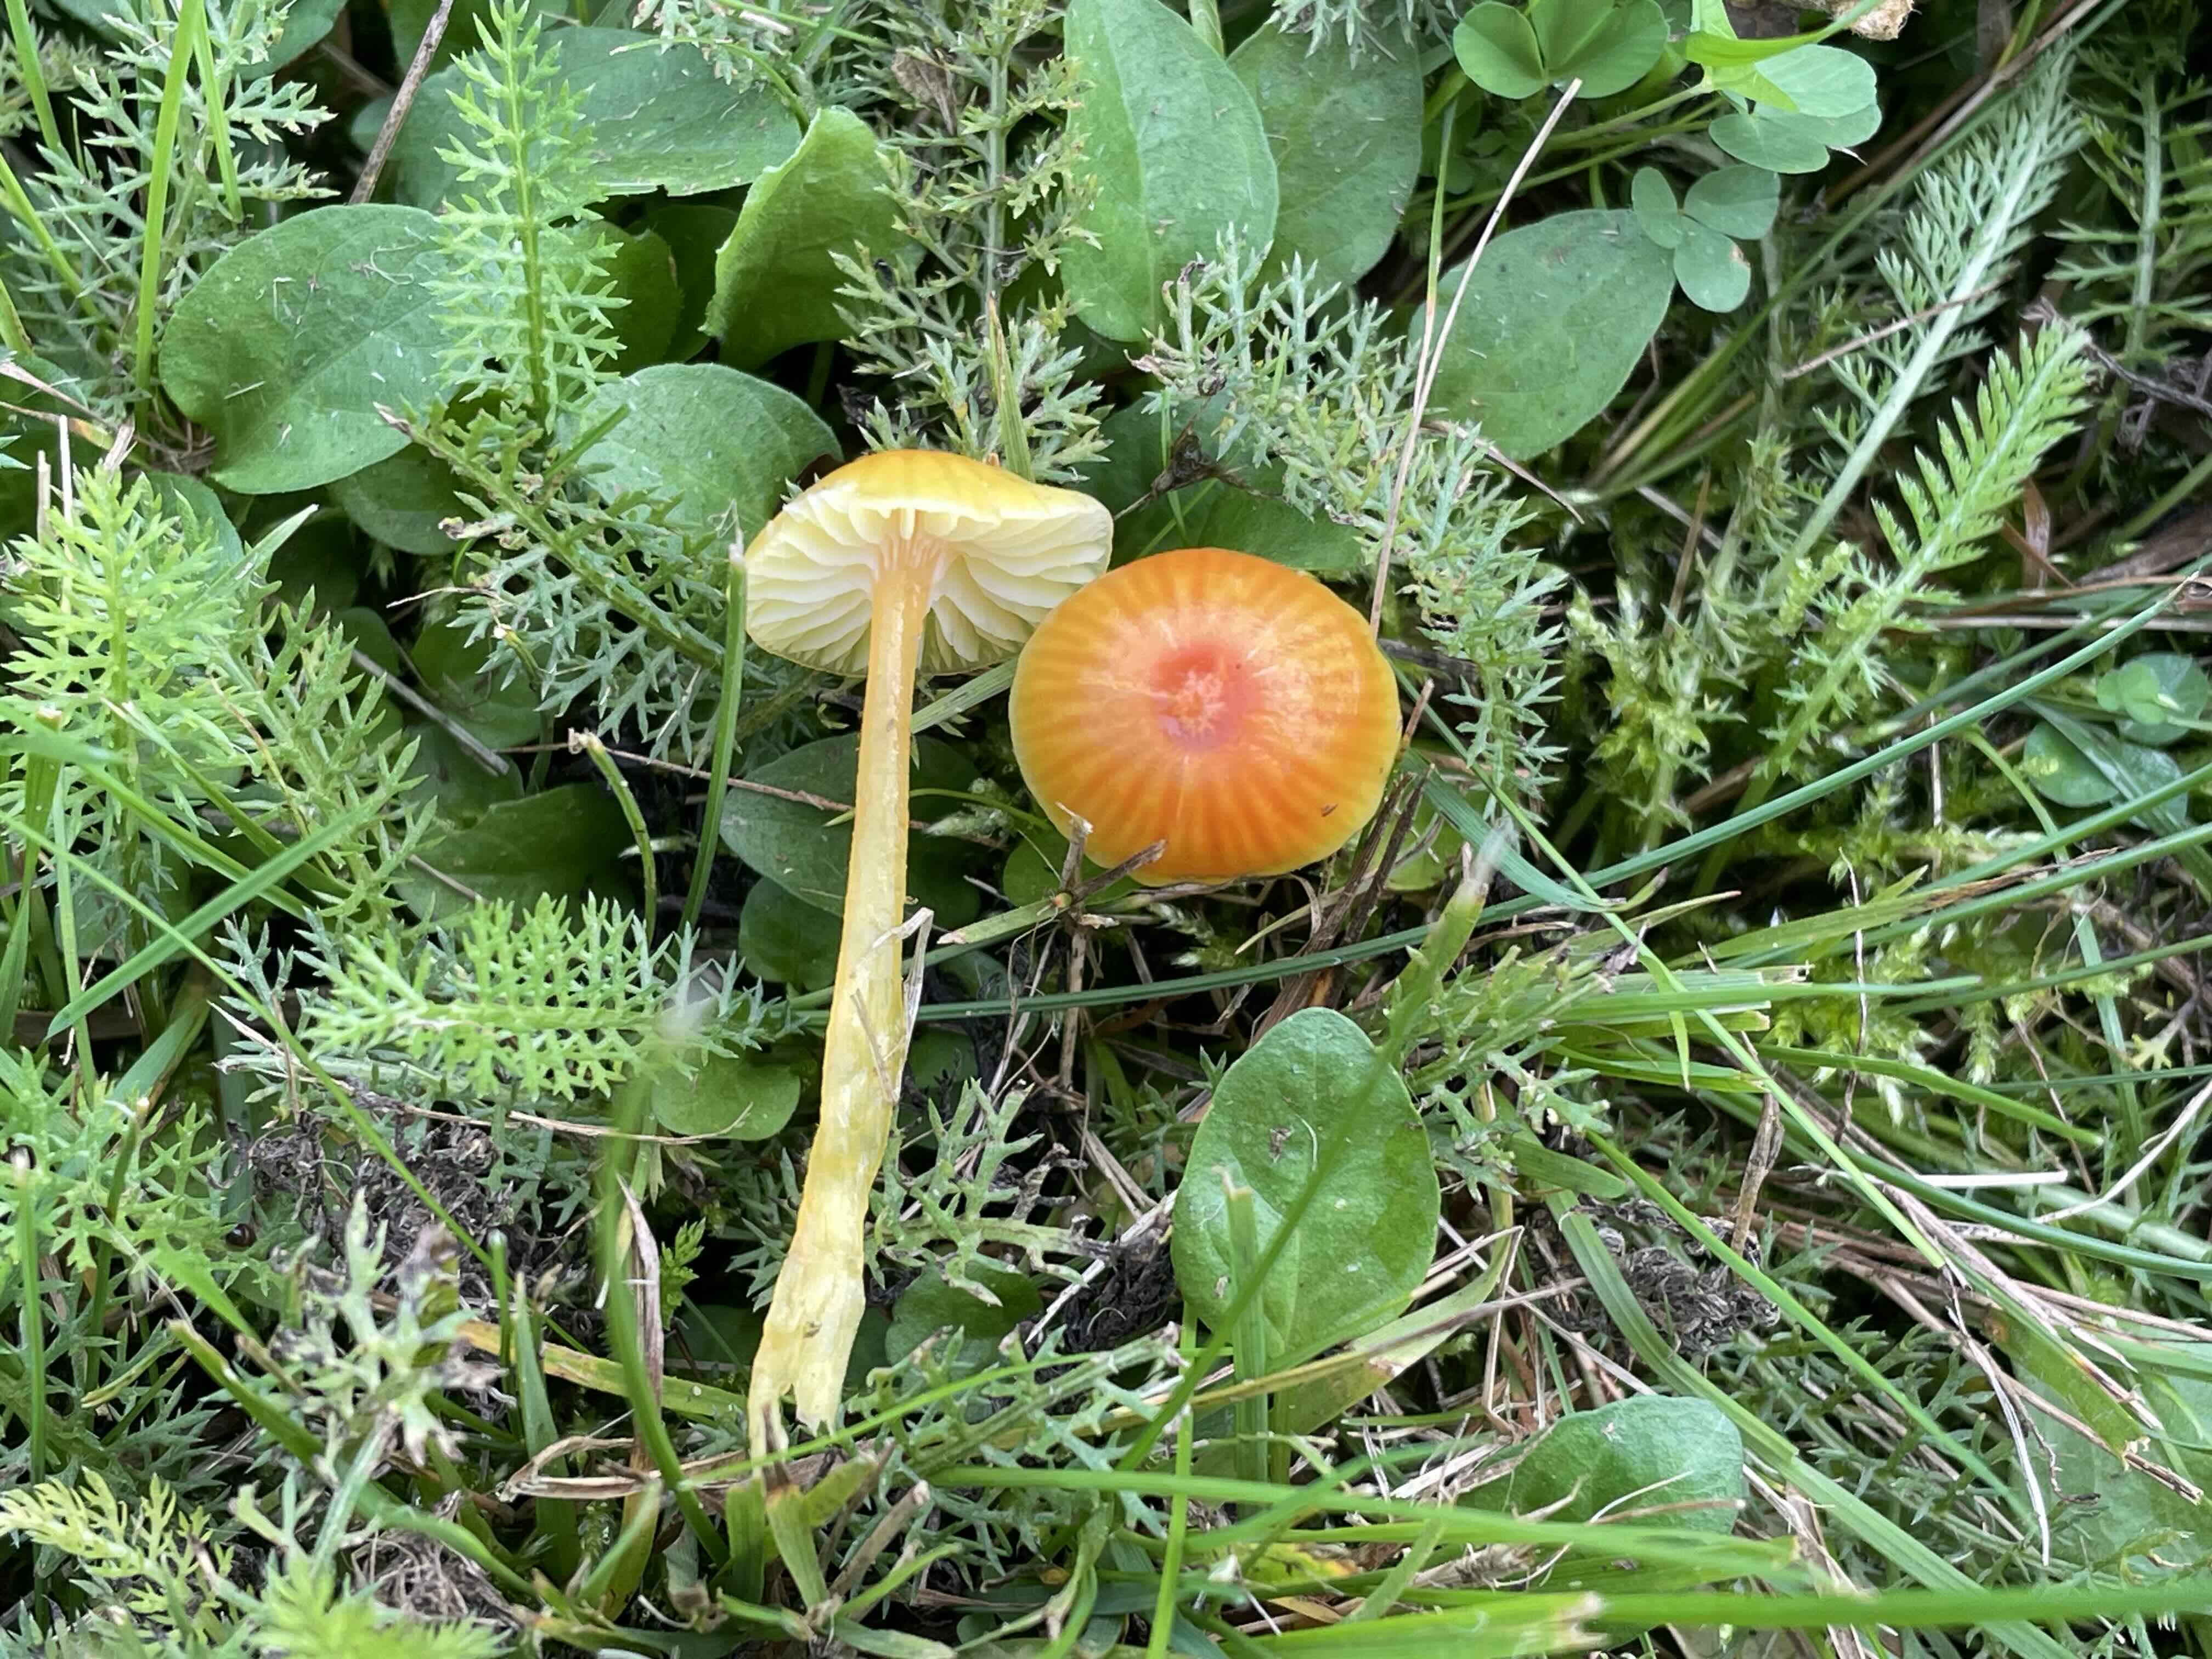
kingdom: Fungi
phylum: Basidiomycota
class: Agaricomycetes
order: Agaricales
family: Hygrophoraceae
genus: Hygrocybe
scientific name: Hygrocybe glutinipes
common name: slimstokket vokshat
